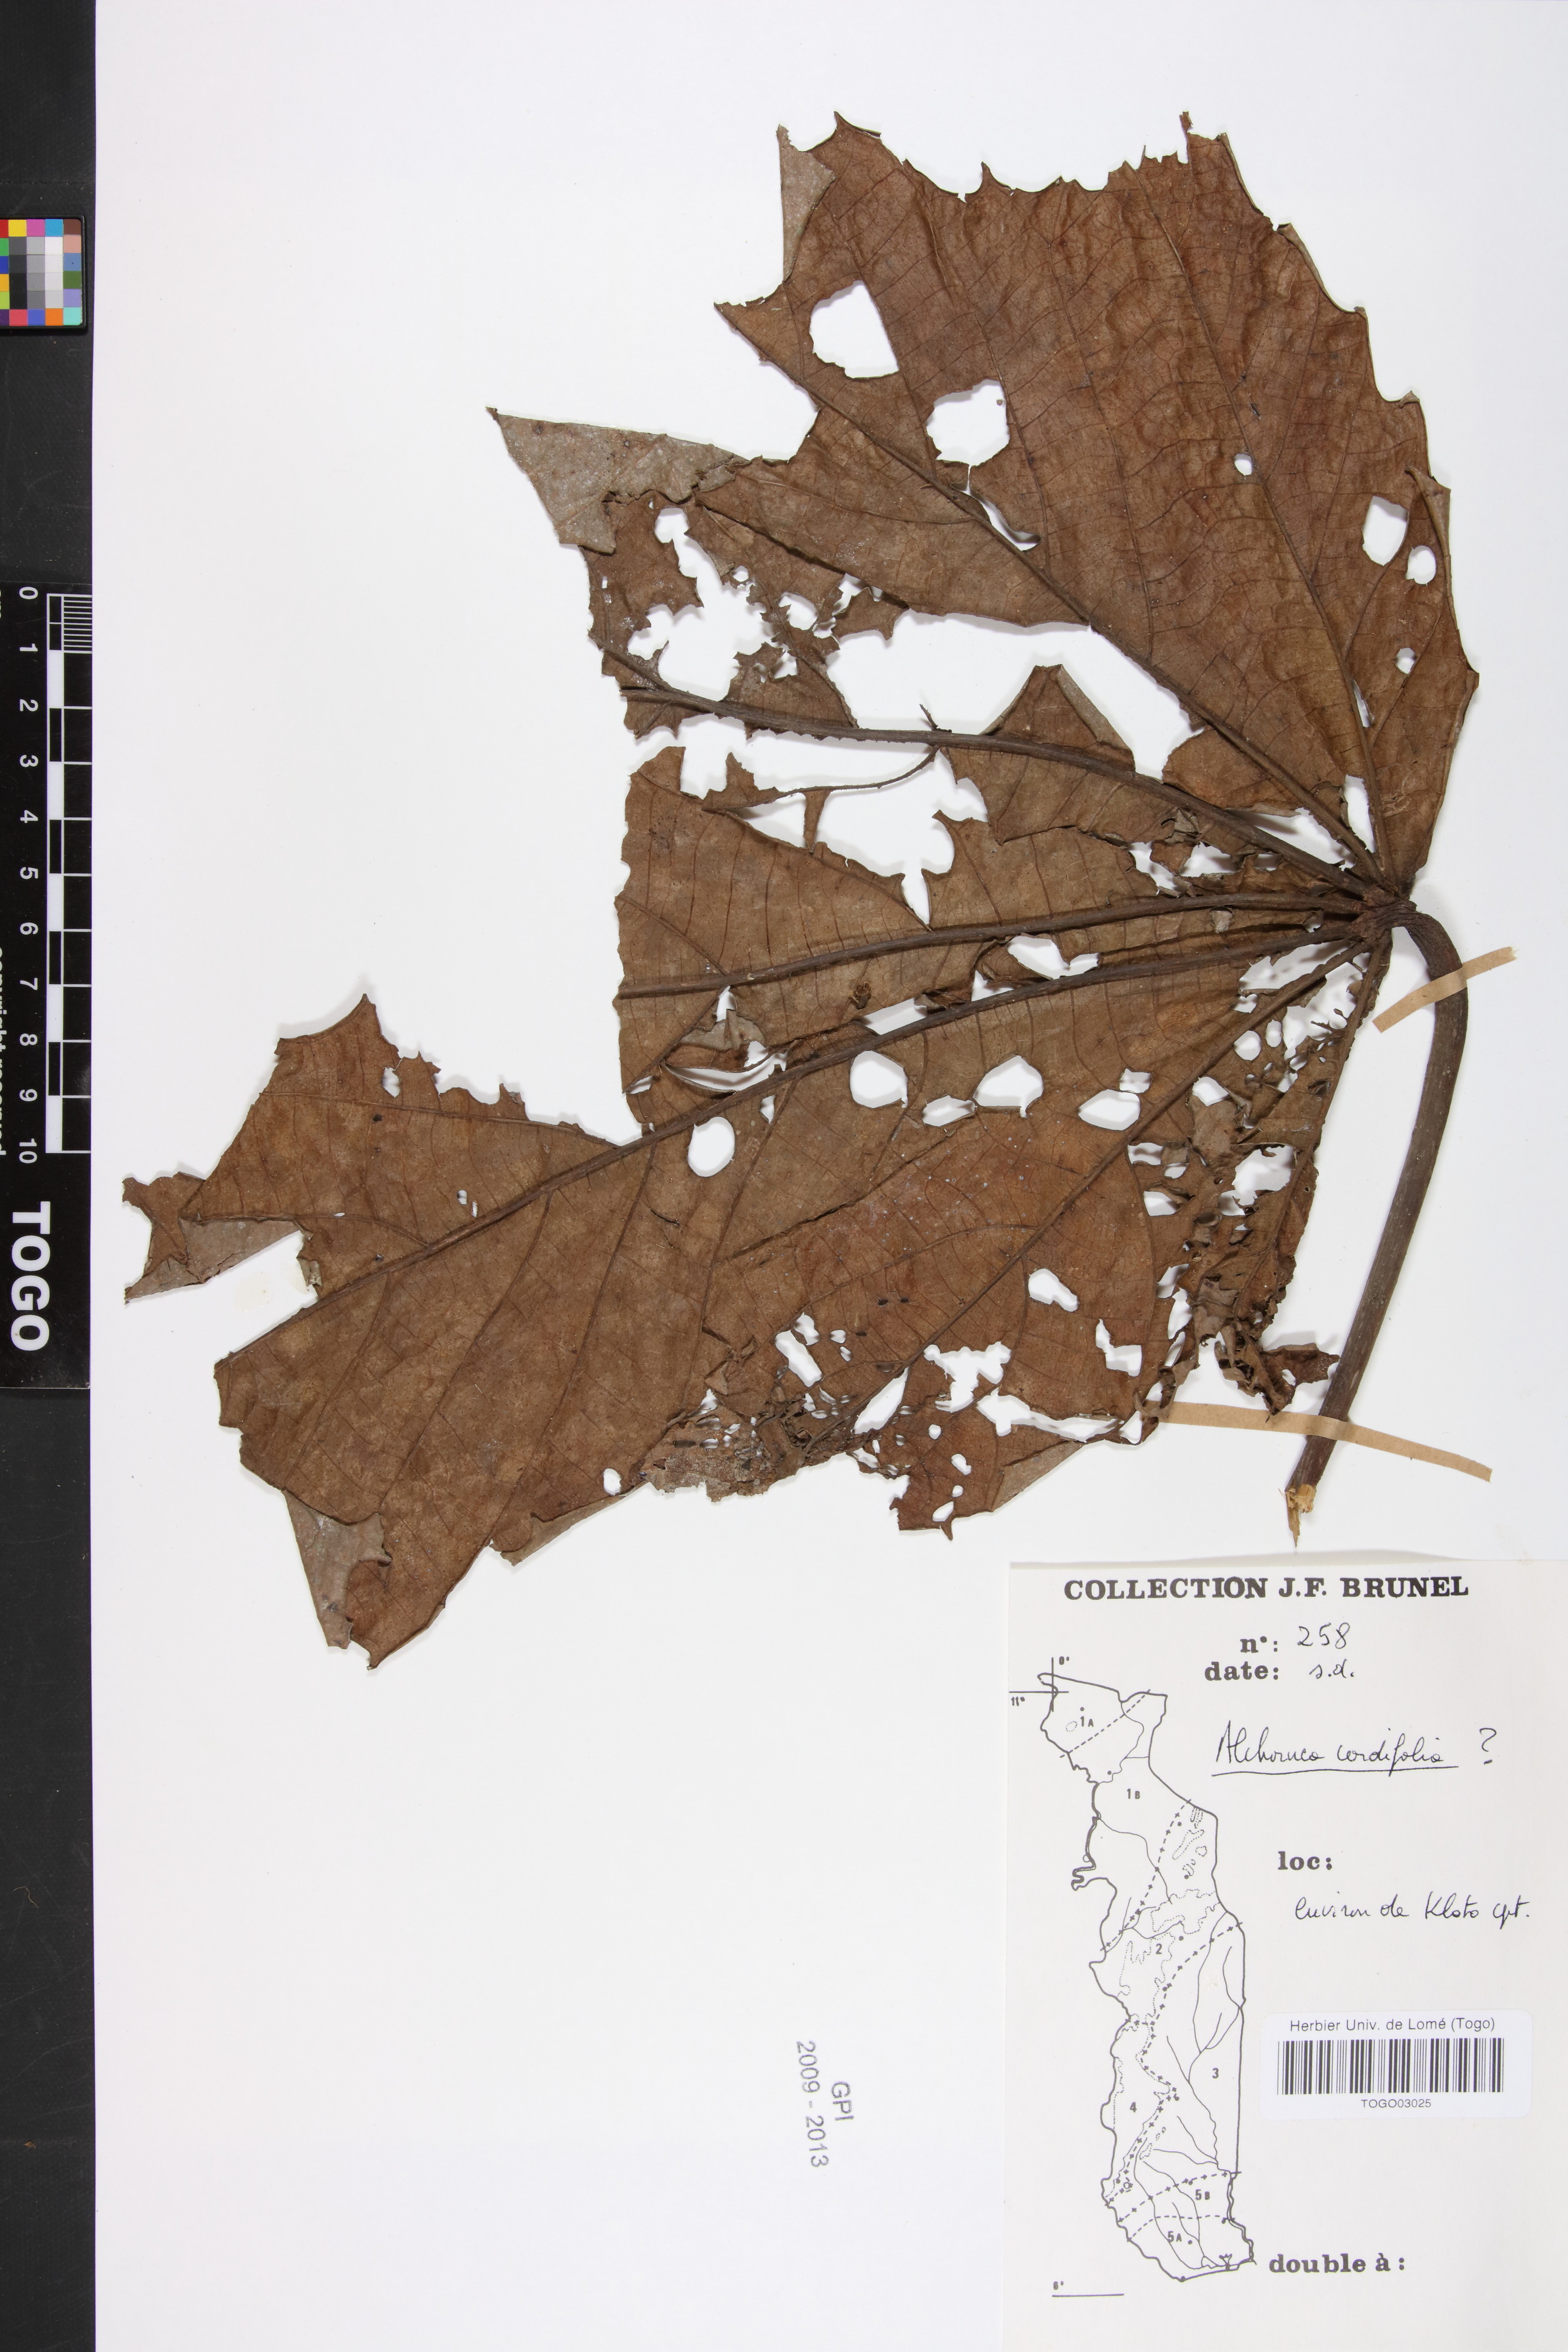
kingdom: Plantae
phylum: Tracheophyta
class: Magnoliopsida
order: Malpighiales
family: Euphorbiaceae
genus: Alchornea
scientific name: Alchornea cordifolia
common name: Christmasbush
